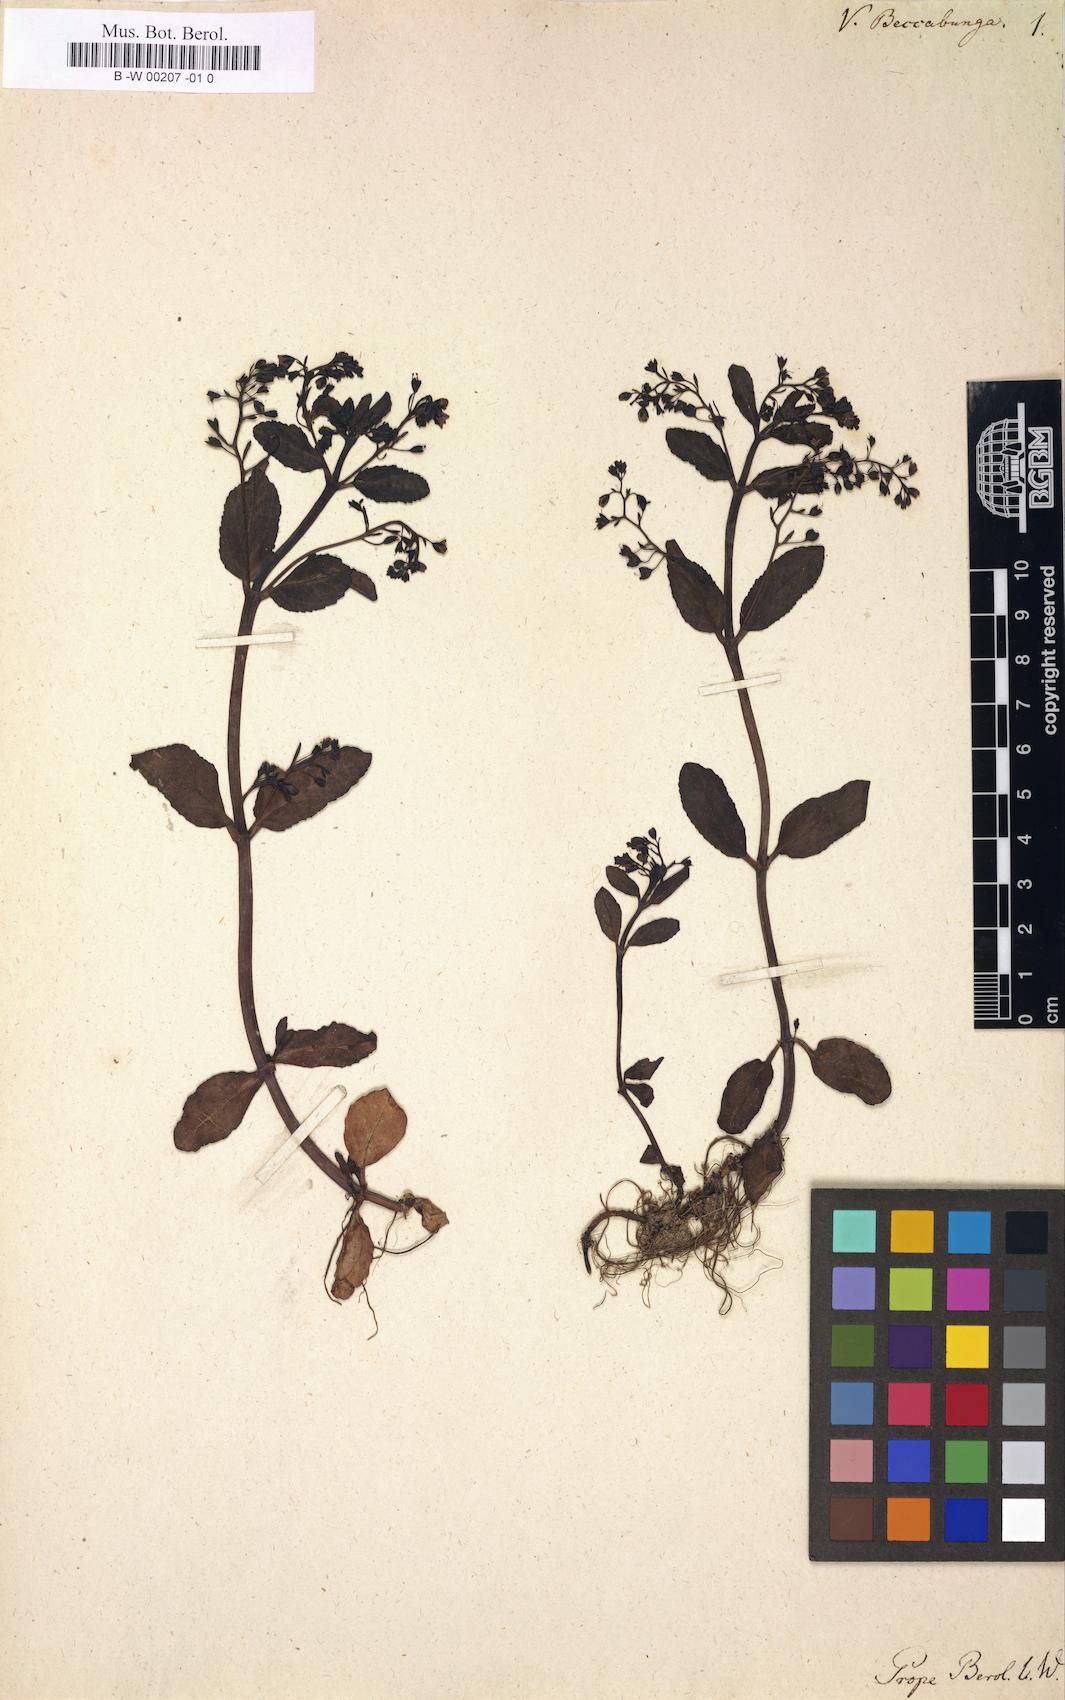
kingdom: Plantae
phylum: Tracheophyta
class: Magnoliopsida
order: Lamiales
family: Plantaginaceae
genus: Veronica
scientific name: Veronica beccabunga
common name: Brooklime
